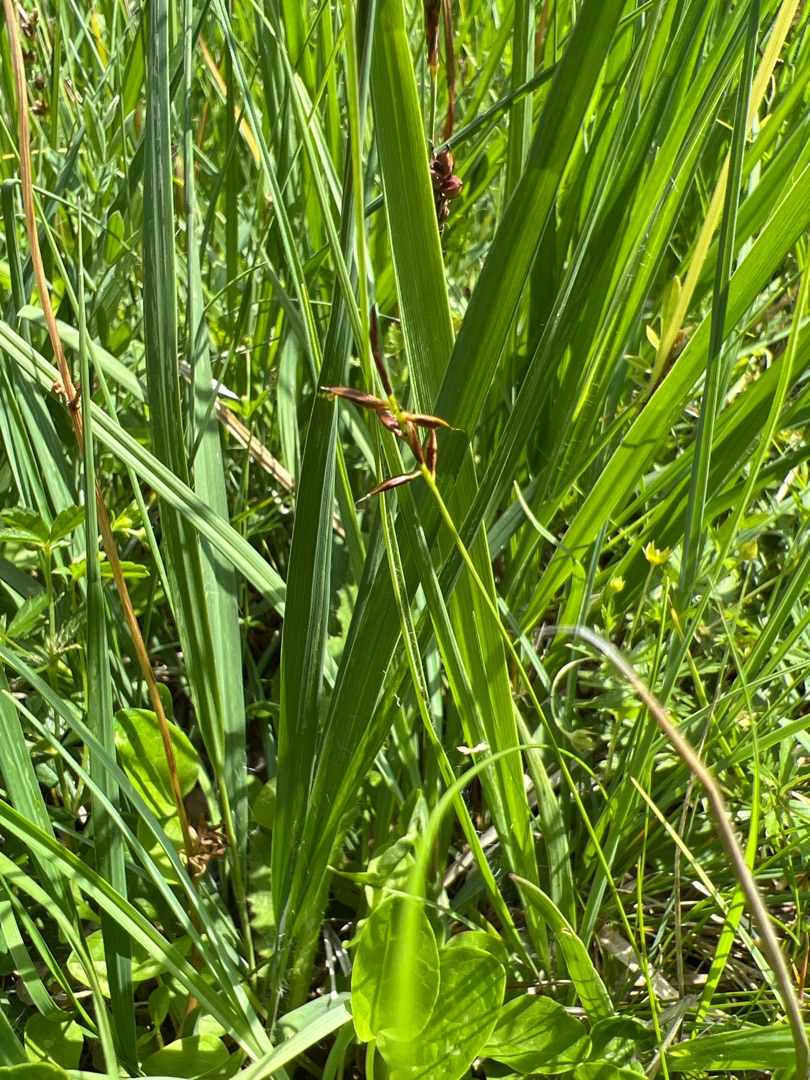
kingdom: Plantae
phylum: Tracheophyta
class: Liliopsida
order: Poales
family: Cyperaceae
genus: Carex
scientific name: Carex pulicaris
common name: Loppe-star
